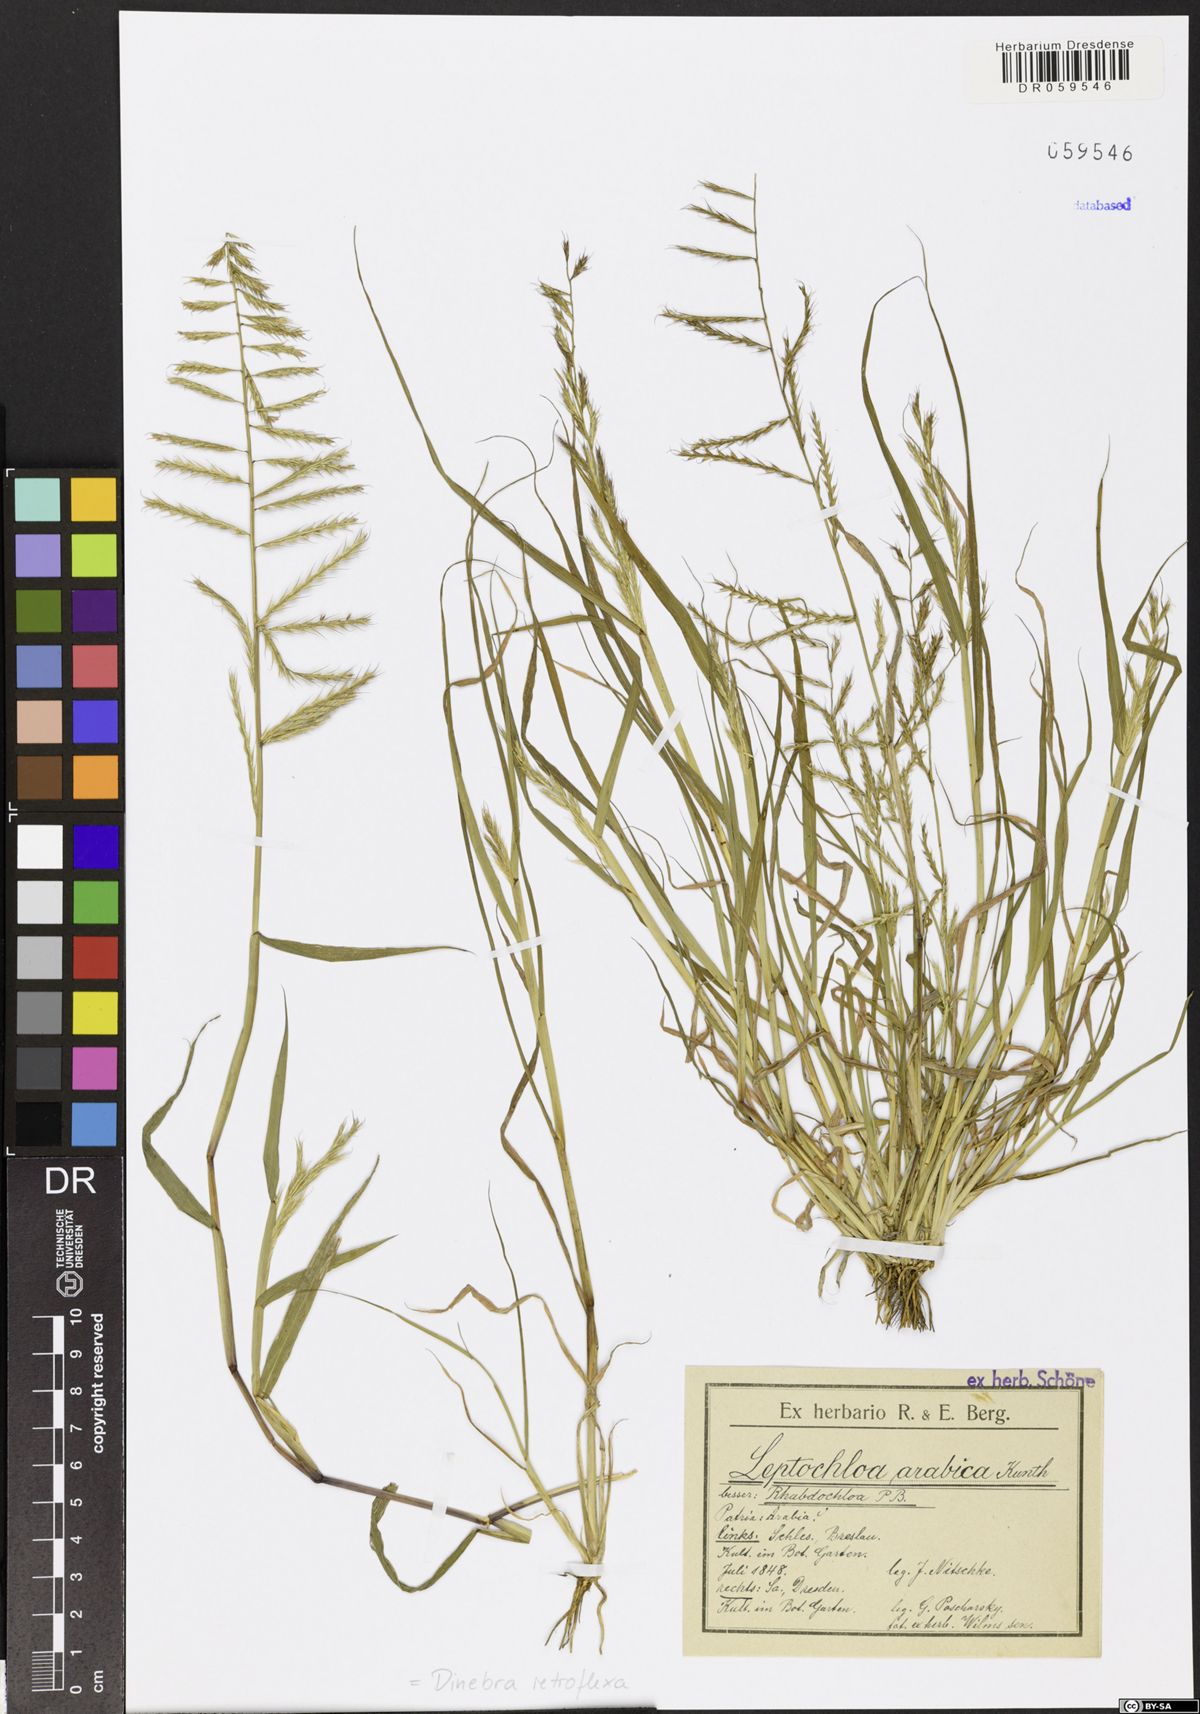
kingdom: Plantae
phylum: Tracheophyta
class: Liliopsida
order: Poales
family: Poaceae
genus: Dinebra
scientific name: Dinebra retroflexa
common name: Viper grass
